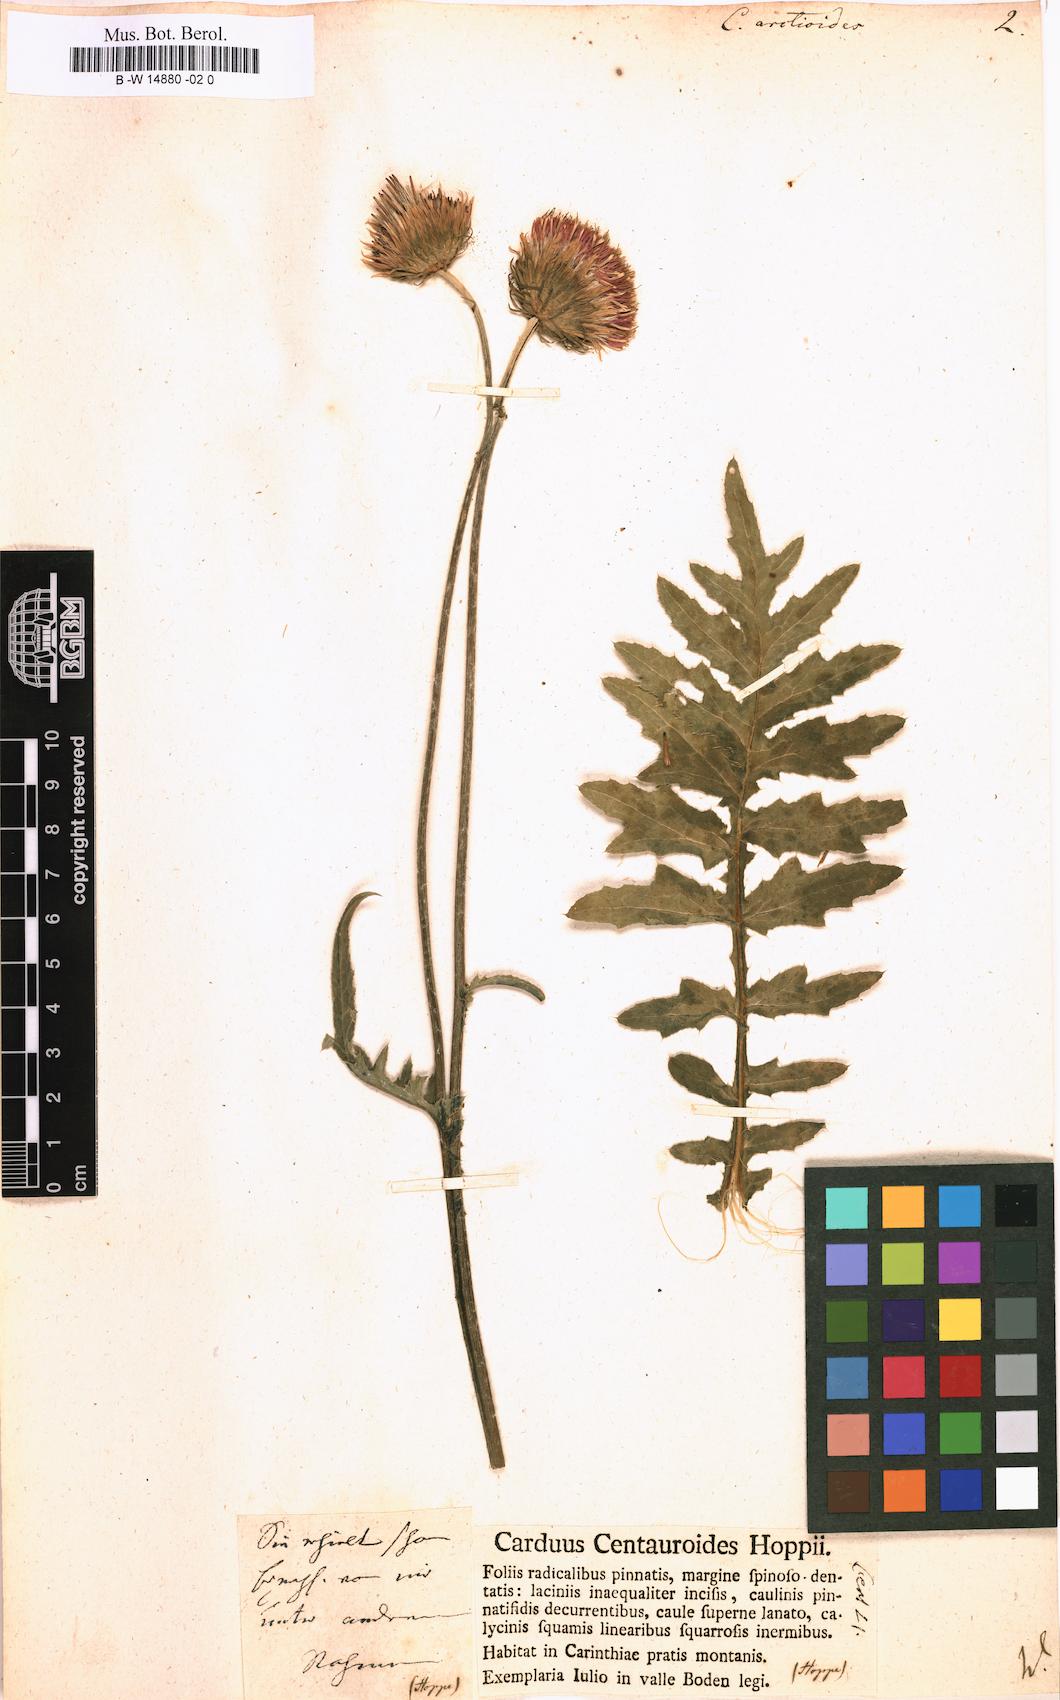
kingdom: Plantae
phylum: Tracheophyta
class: Magnoliopsida
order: Asterales
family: Asteraceae
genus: Carduus
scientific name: Carduus
